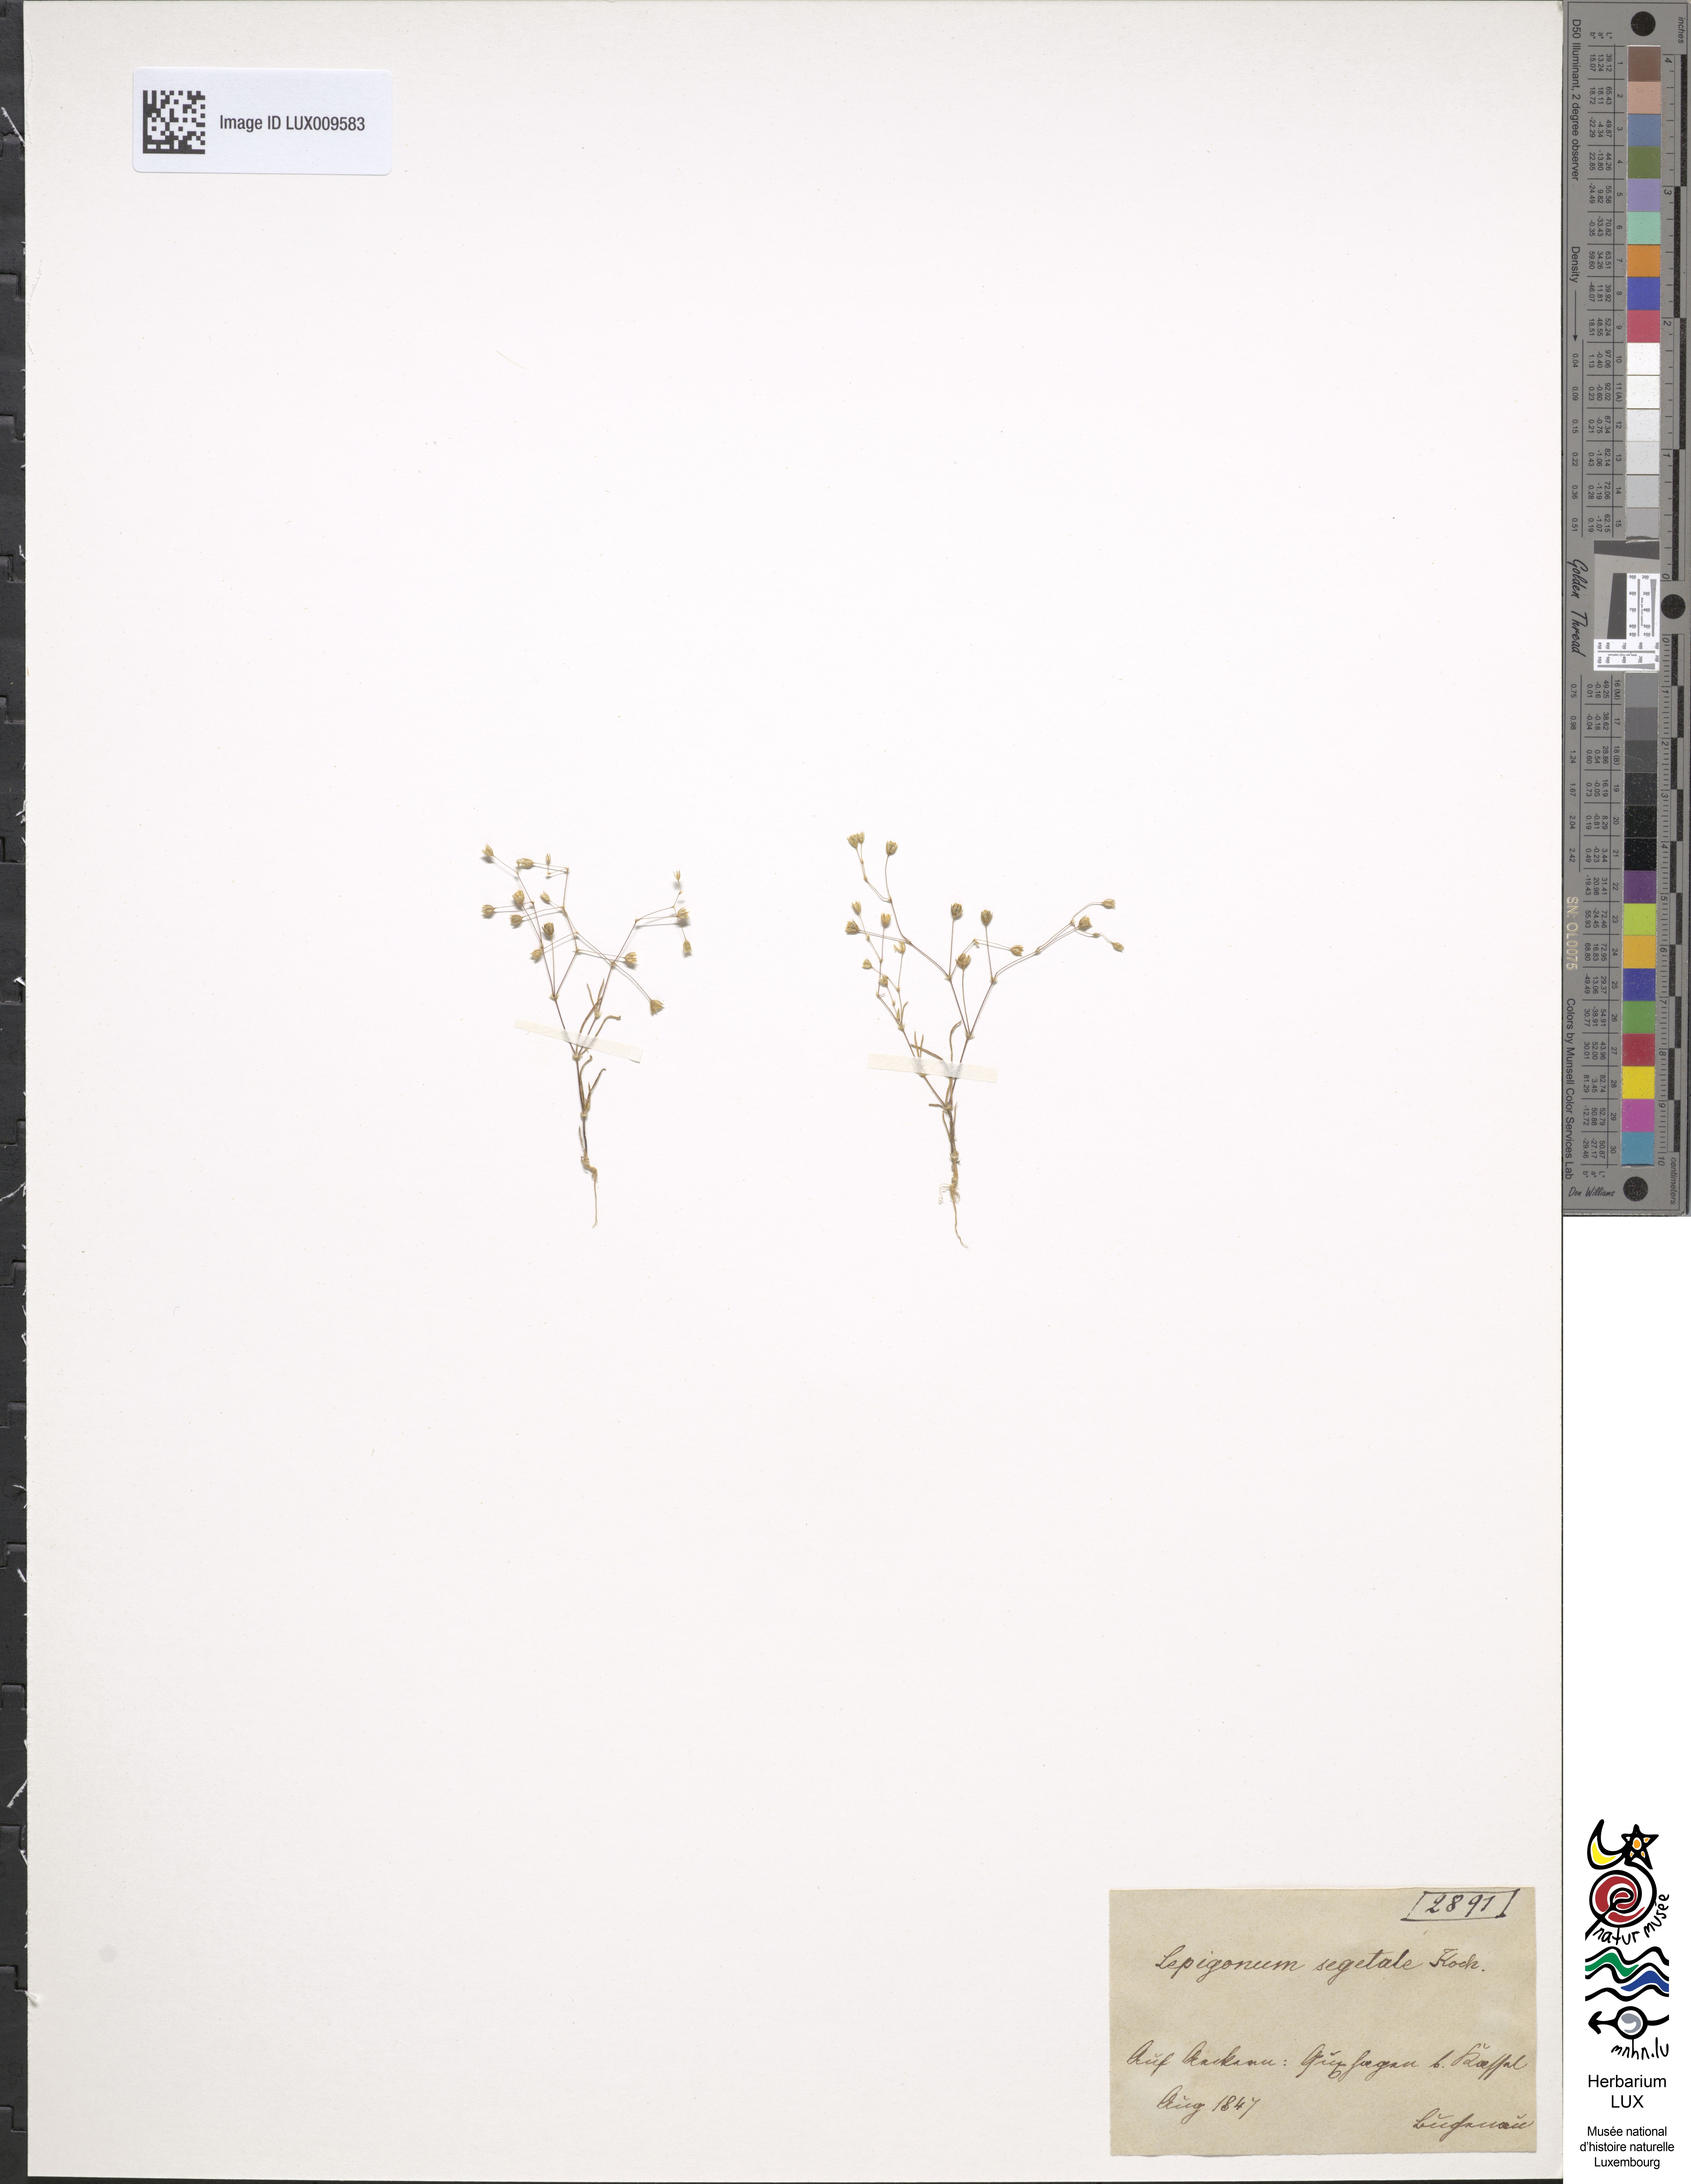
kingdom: Plantae
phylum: Tracheophyta
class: Magnoliopsida
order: Caryophyllales
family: Caryophyllaceae
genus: Spergularia
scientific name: Spergularia segetalis
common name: Corn sand spurrey
